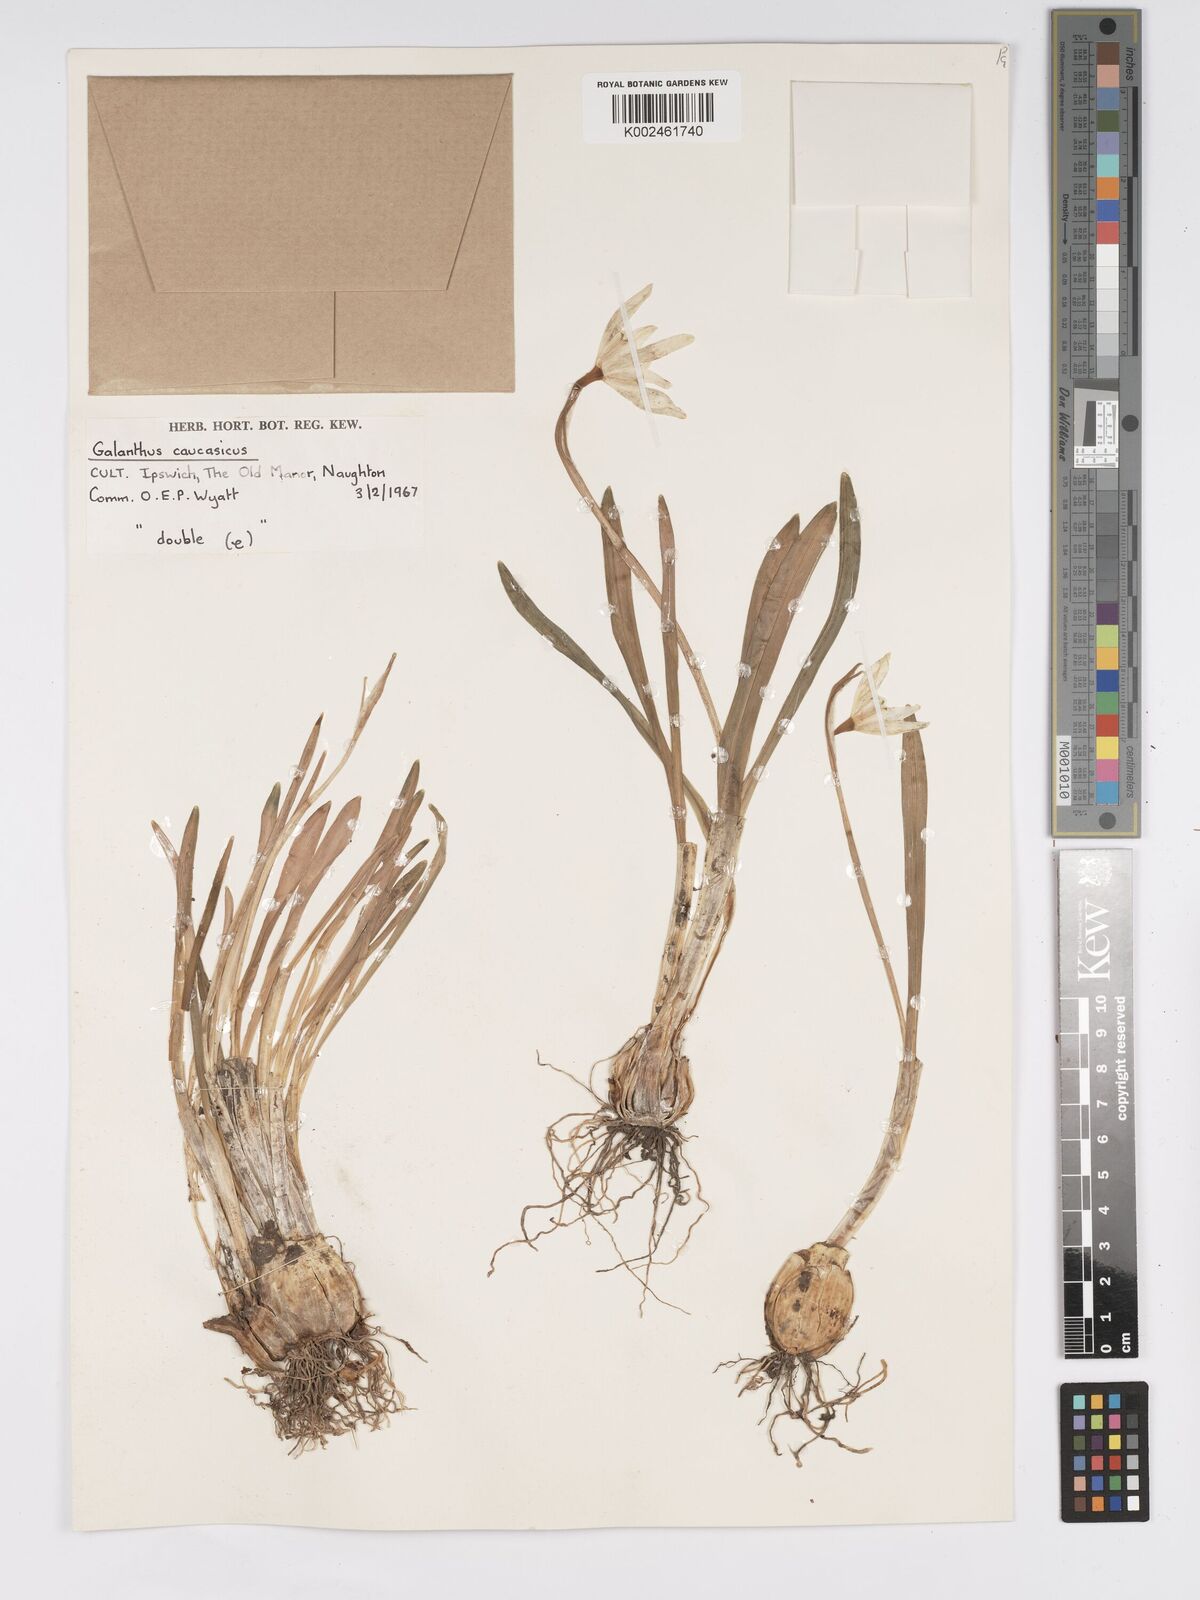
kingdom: Plantae
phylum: Tracheophyta
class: Liliopsida
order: Asparagales
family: Amaryllidaceae
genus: Galanthus
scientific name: Galanthus alpinus
